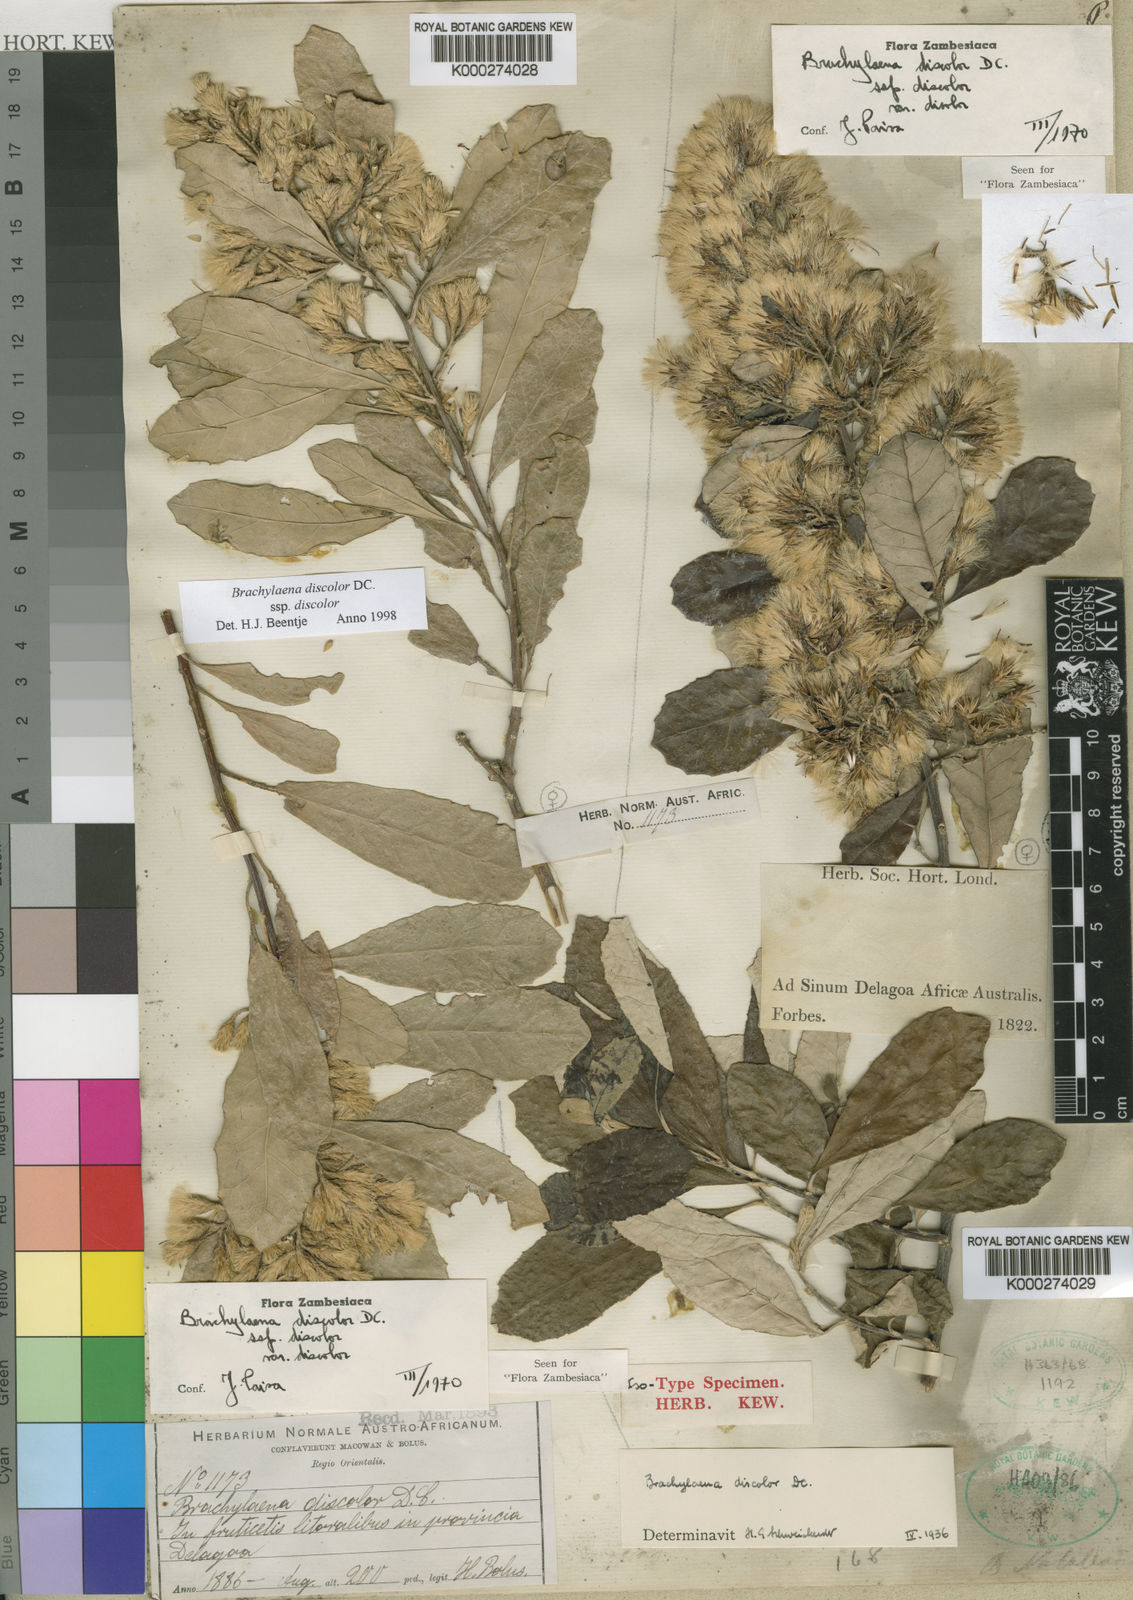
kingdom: Plantae
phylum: Tracheophyta
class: Magnoliopsida
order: Asterales
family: Asteraceae
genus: Brachylaena
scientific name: Brachylaena
